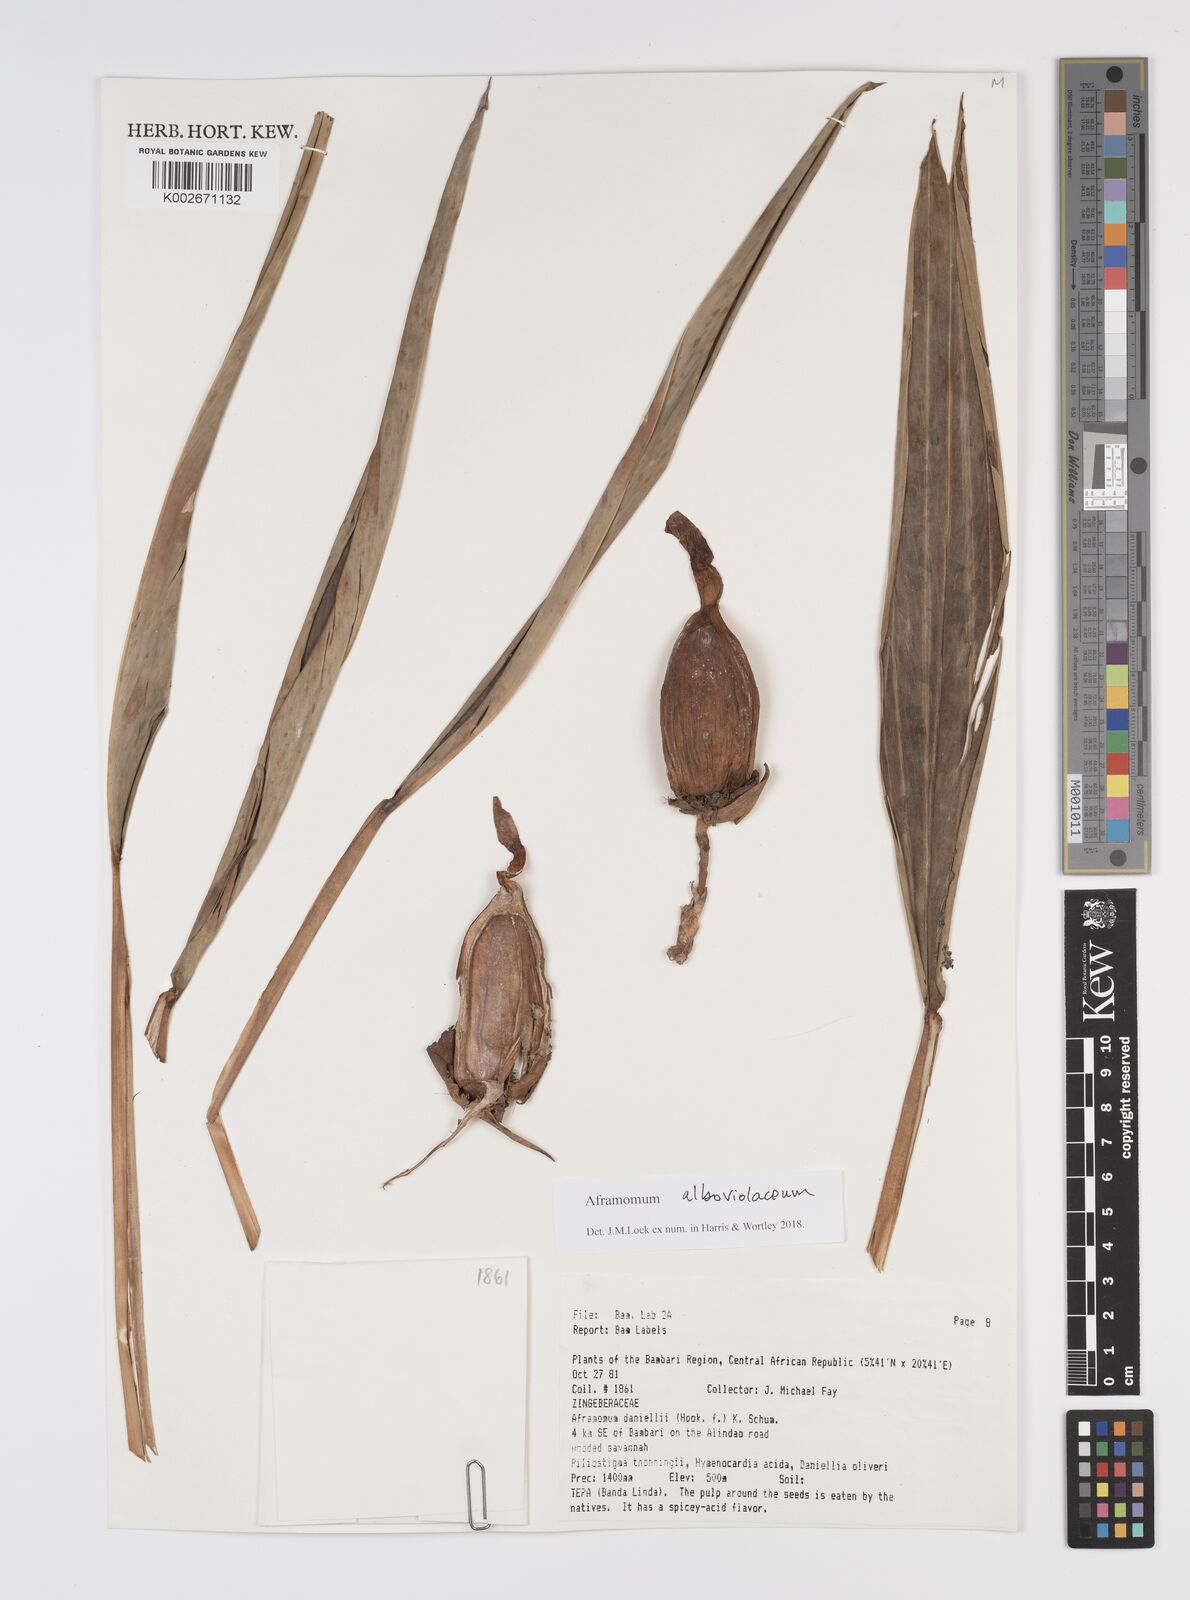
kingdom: Plantae
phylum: Tracheophyta
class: Liliopsida
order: Zingiberales
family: Zingiberaceae
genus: Aframomum
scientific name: Aframomum alboviolaceum
